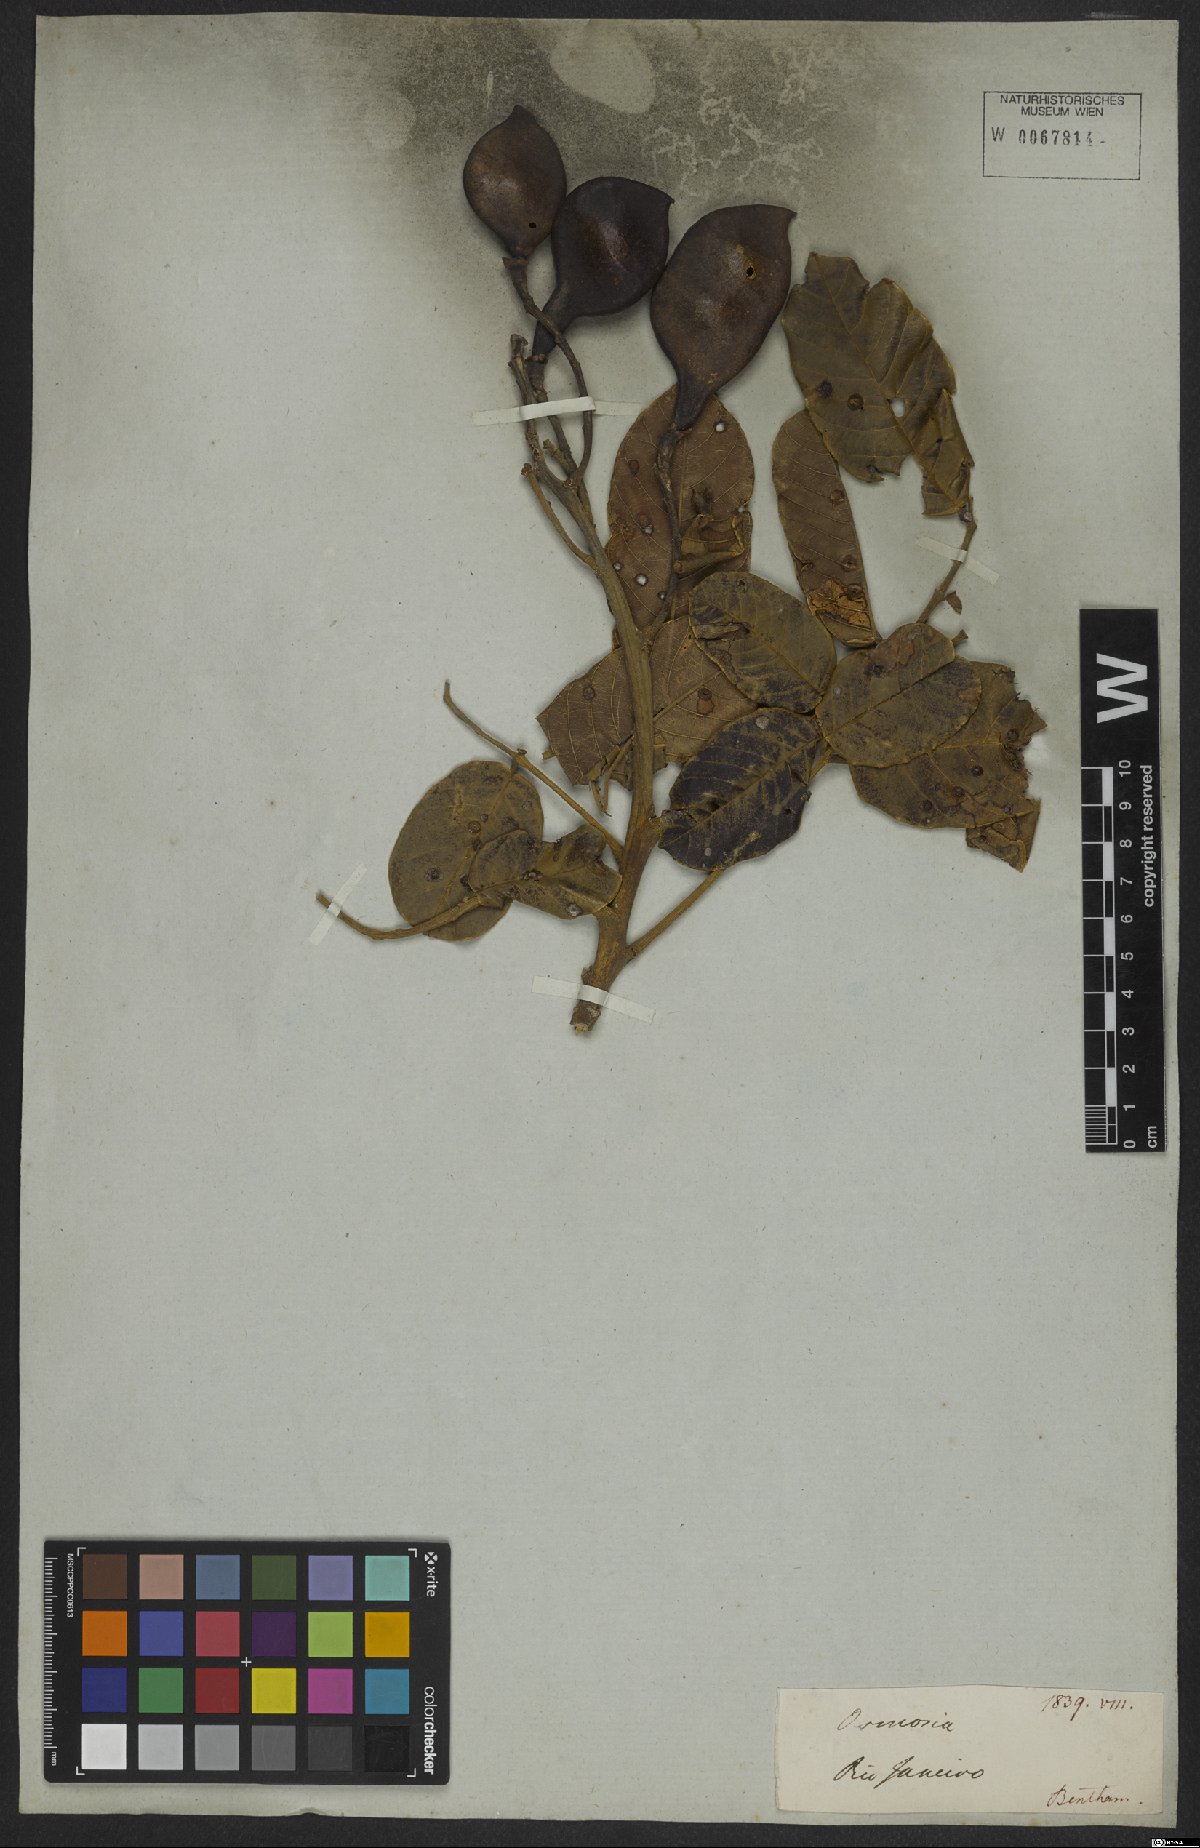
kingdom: Plantae
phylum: Tracheophyta
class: Magnoliopsida
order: Fabales
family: Fabaceae
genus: Ormosia
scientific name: Ormosia
